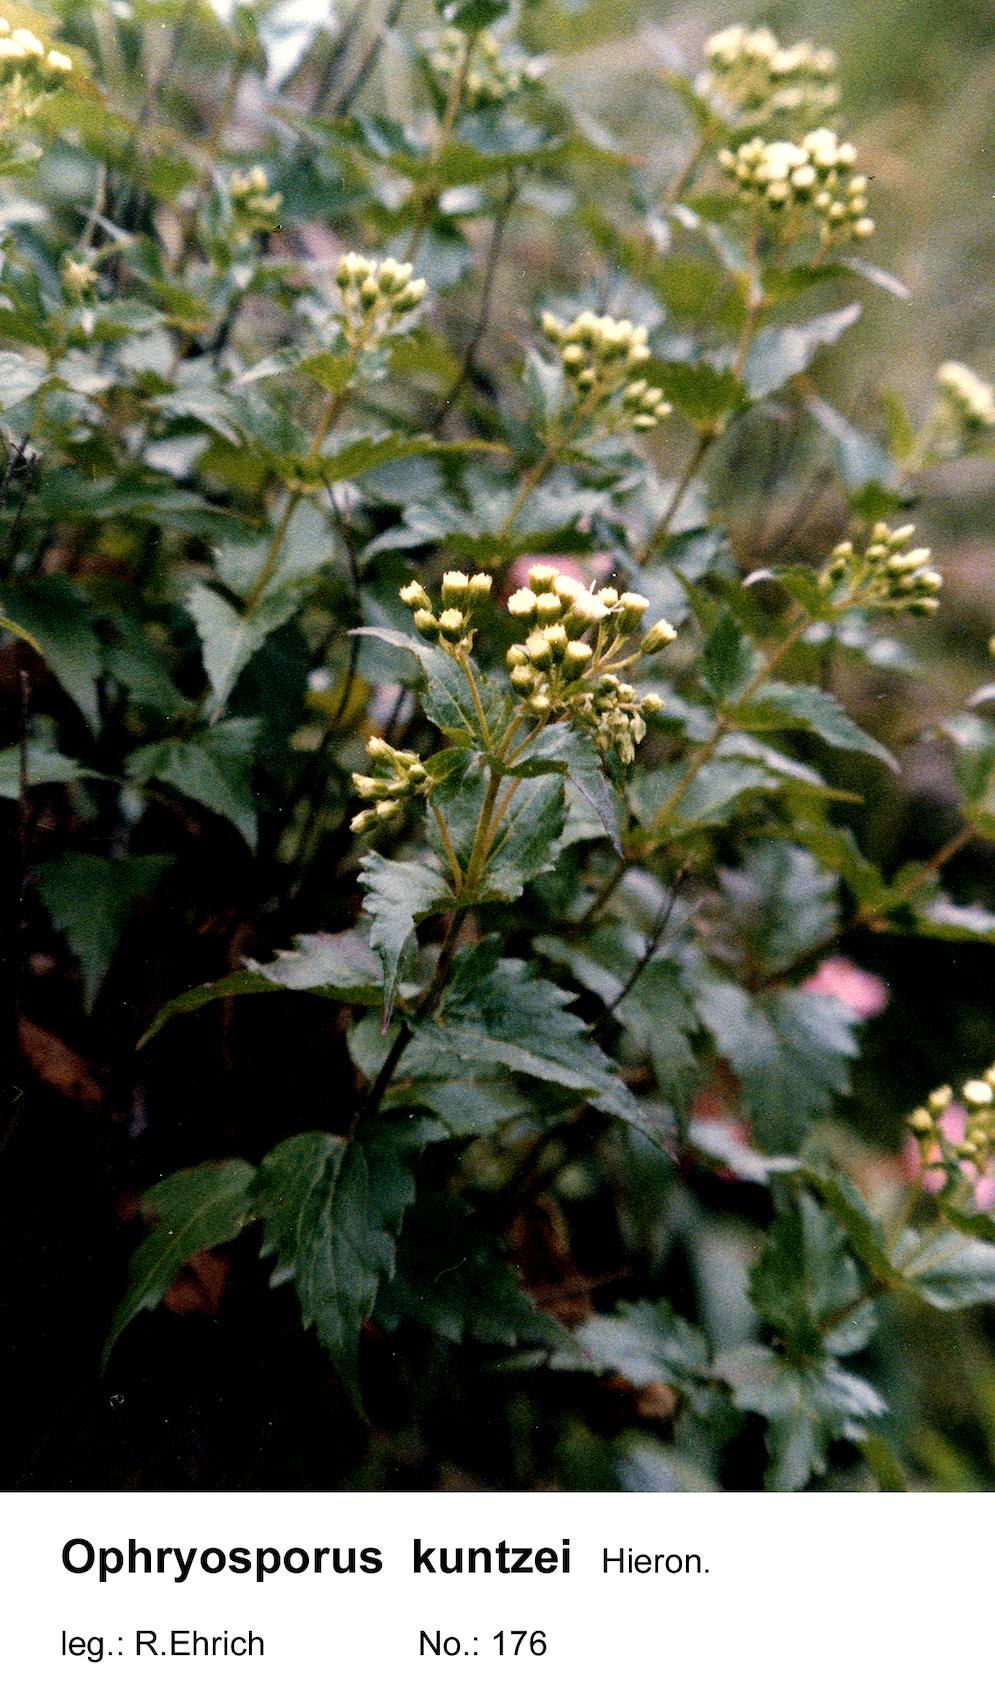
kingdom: Plantae
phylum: Tracheophyta
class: Magnoliopsida
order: Asterales
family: Asteraceae
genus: Ophryosporus
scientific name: Ophryosporus kuntzei
